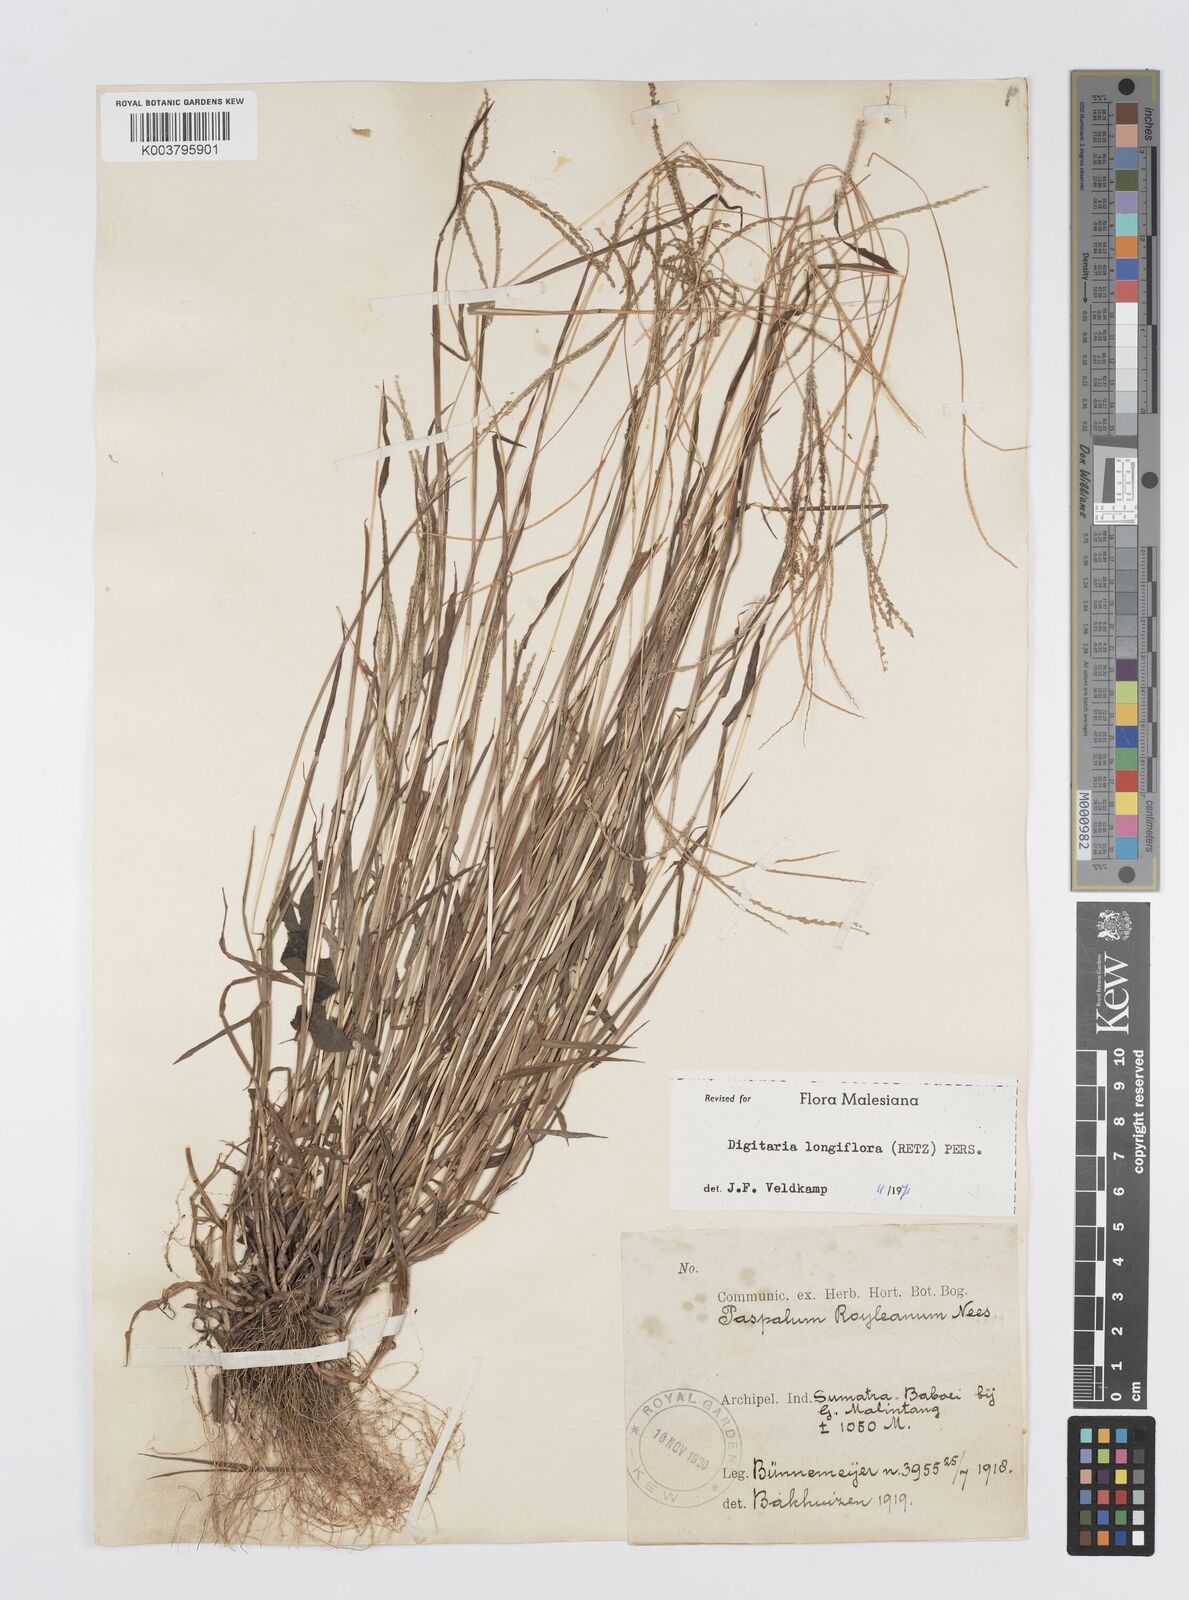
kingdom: Plantae
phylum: Tracheophyta
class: Liliopsida
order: Poales
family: Poaceae
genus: Digitaria
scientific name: Digitaria longiflora
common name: Wire crabgrass
